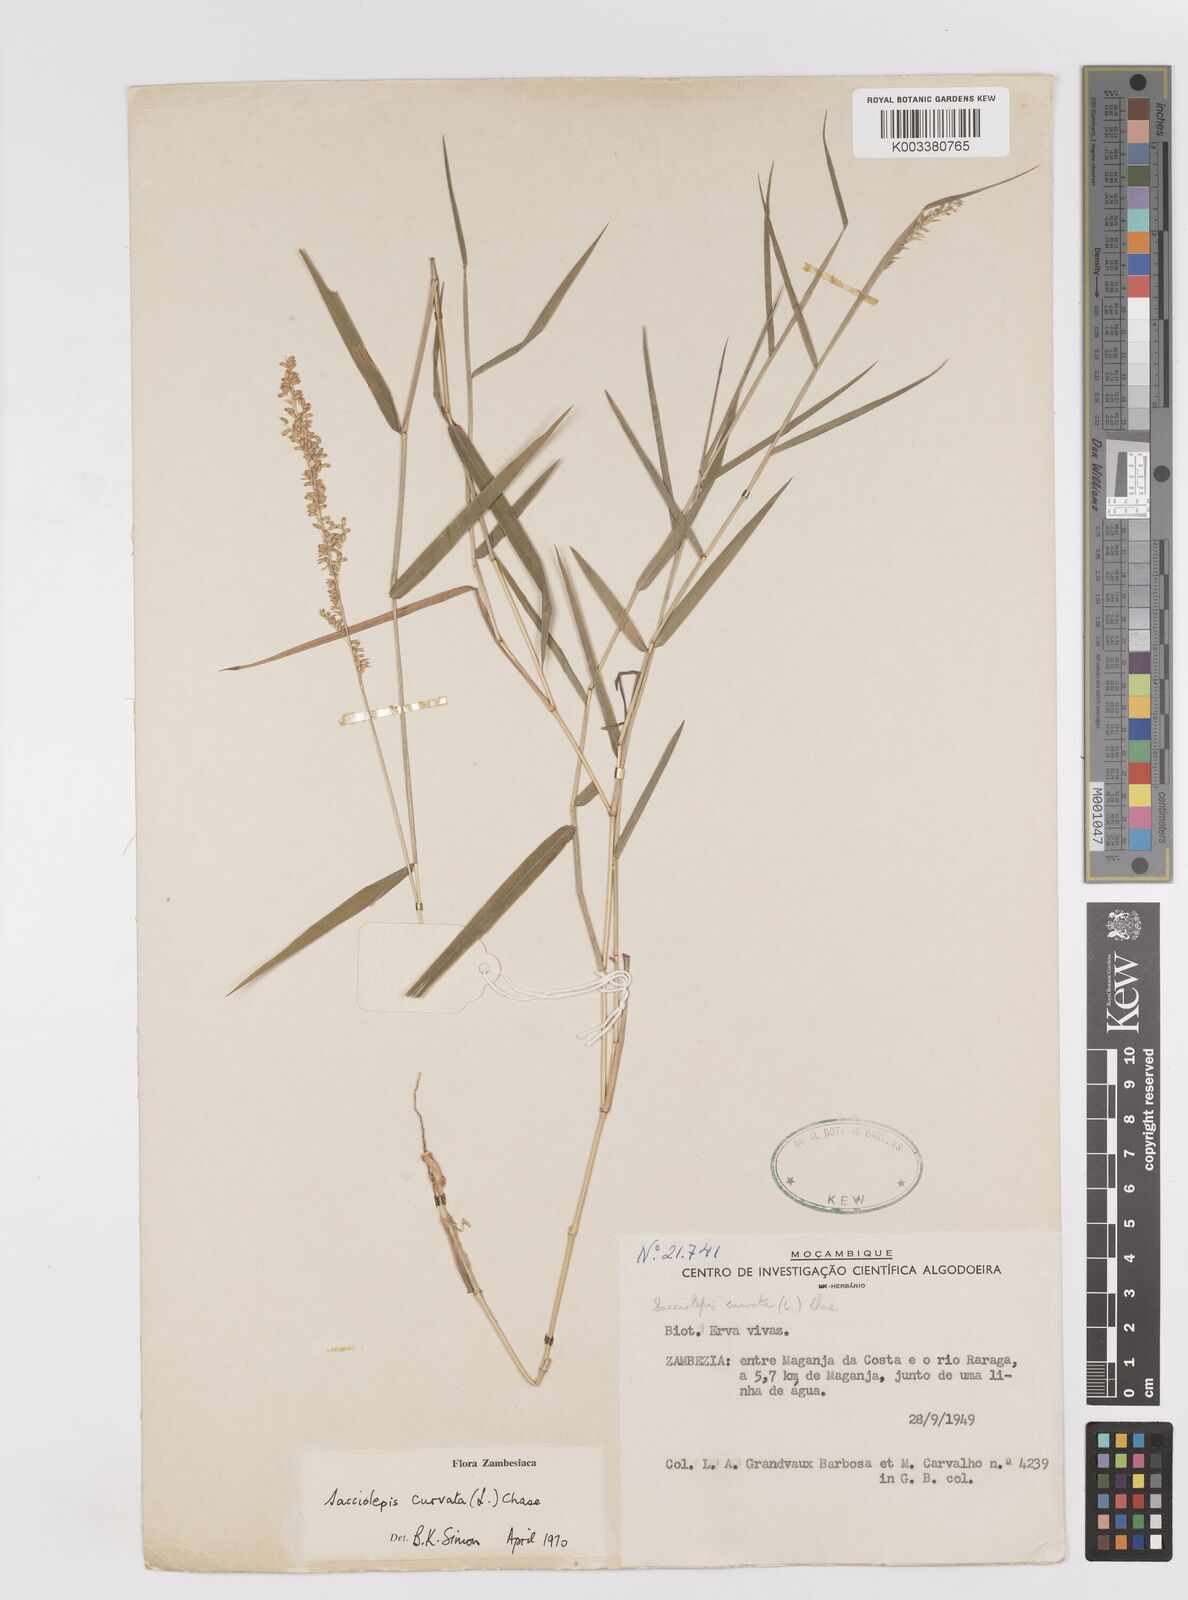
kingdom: Plantae
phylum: Tracheophyta
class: Liliopsida
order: Poales
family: Poaceae
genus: Sacciolepis
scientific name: Sacciolepis curvata
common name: Forest hood grass
